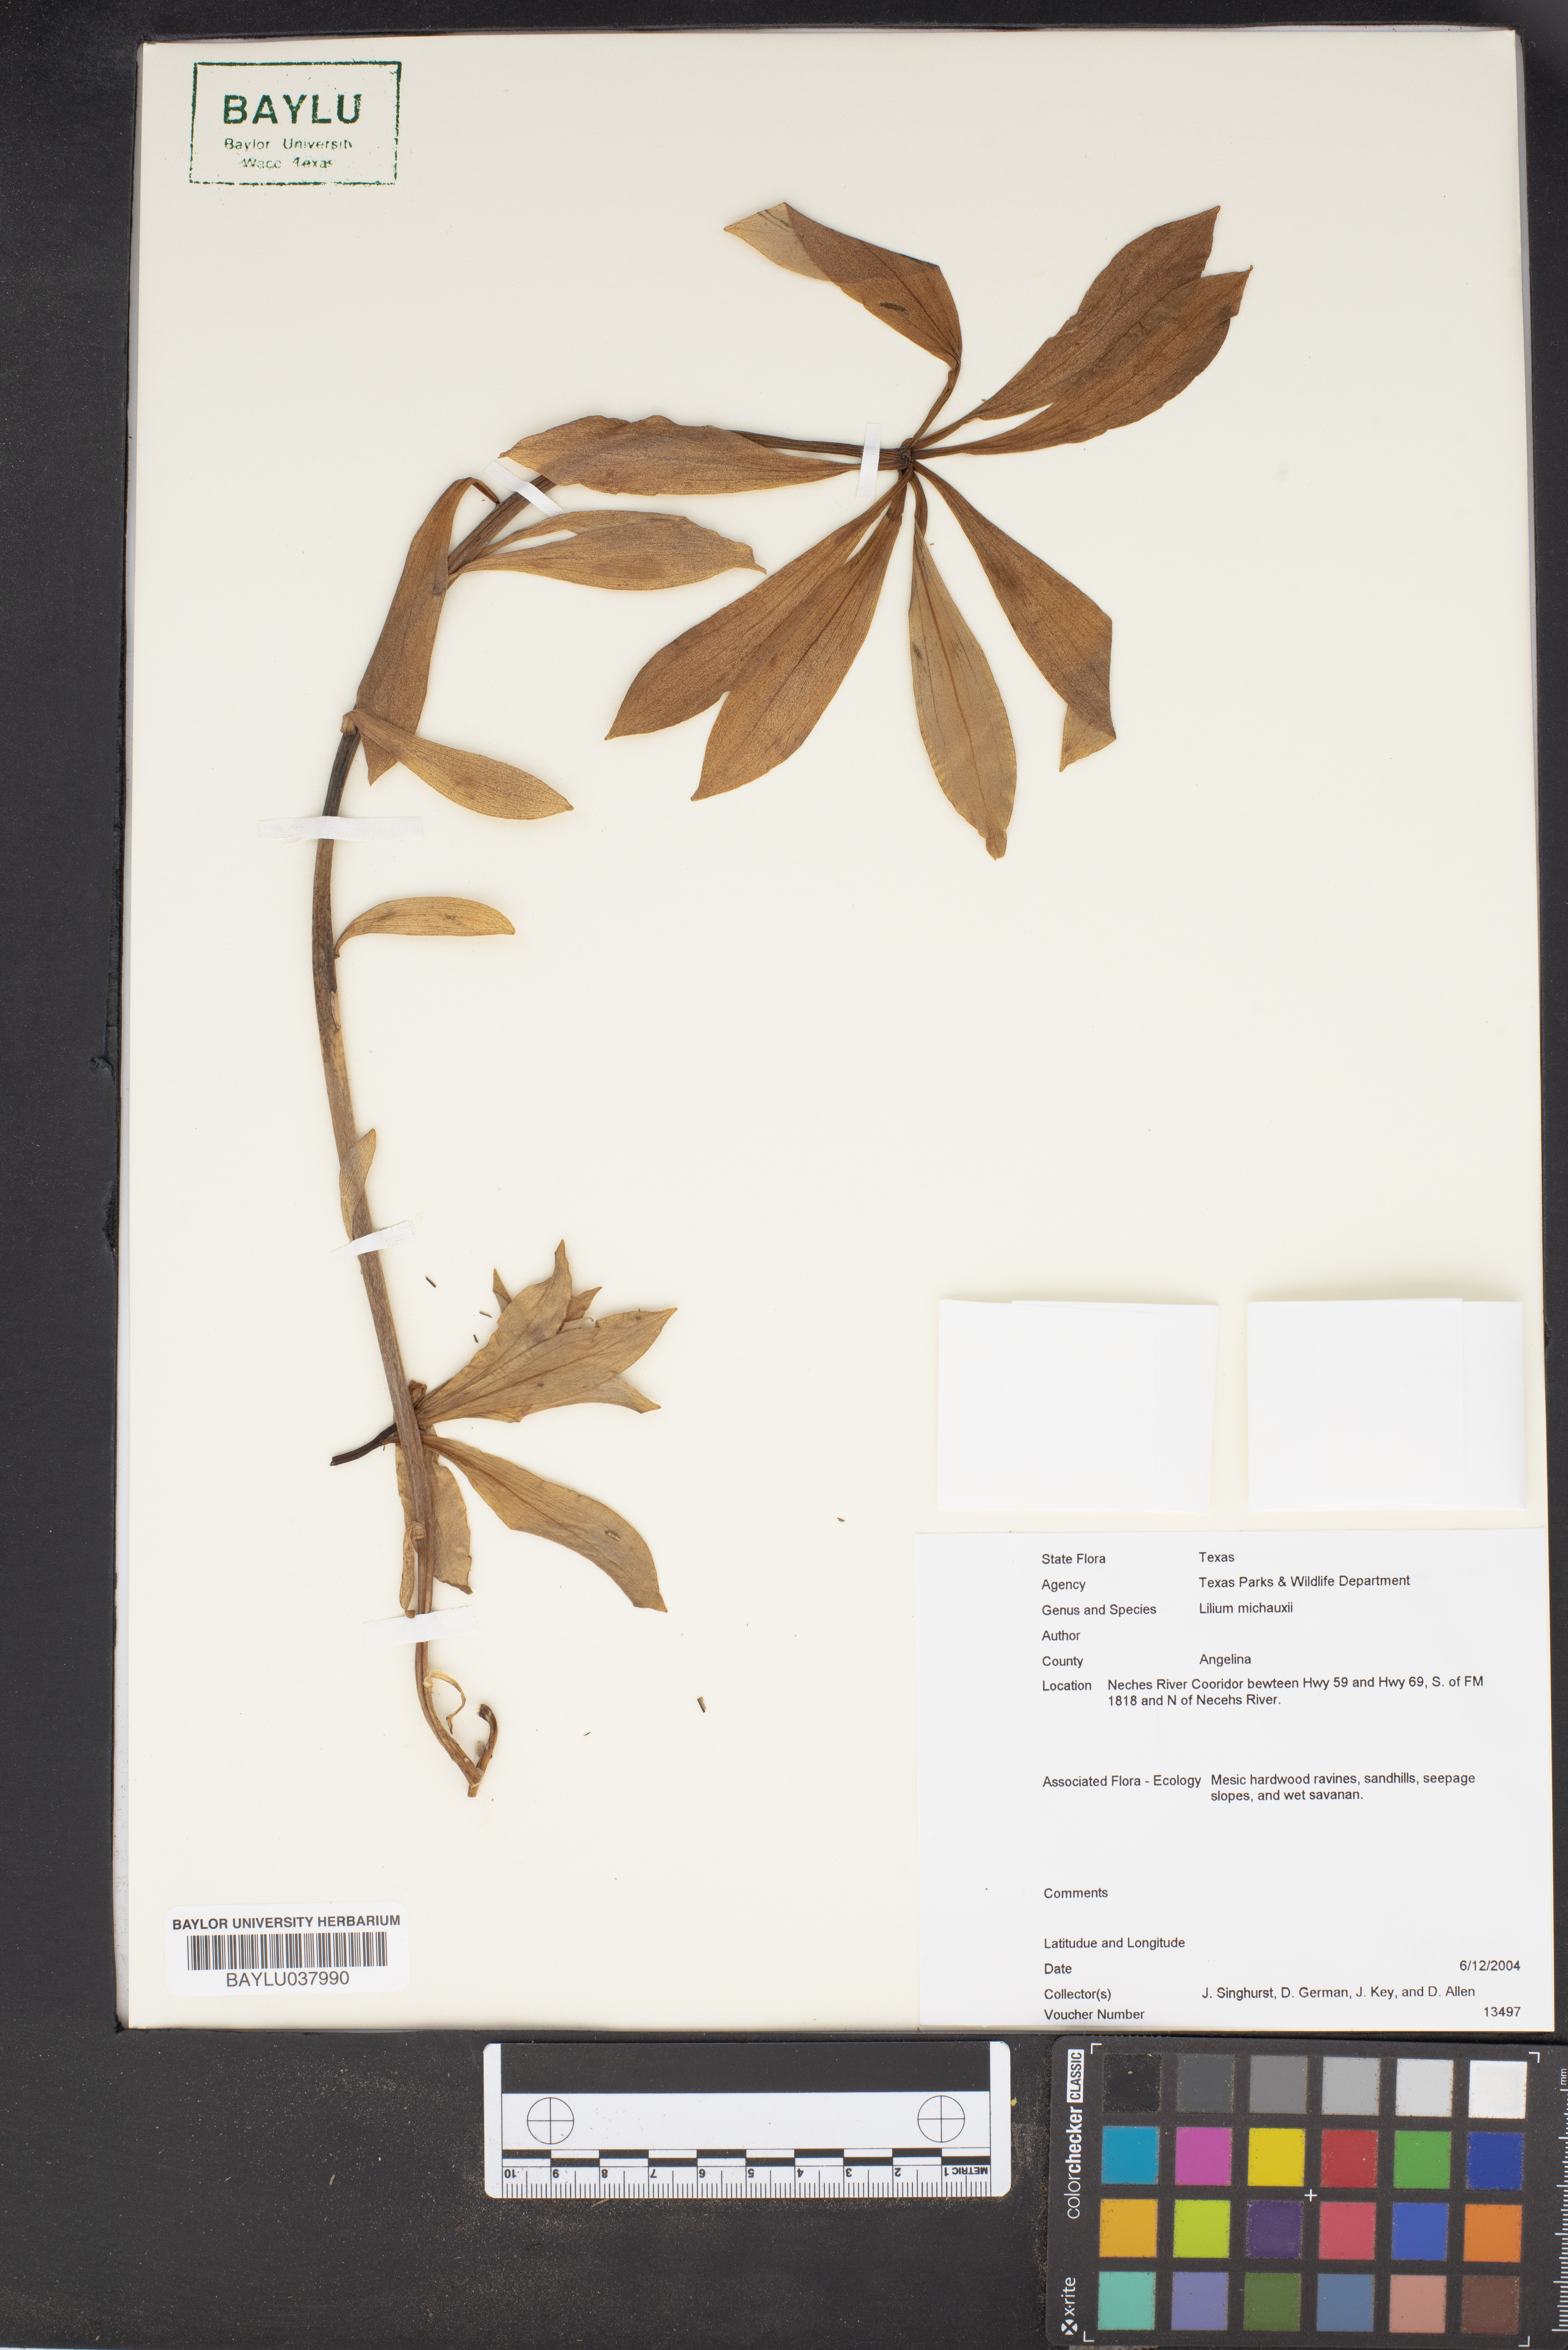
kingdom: Plantae
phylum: Tracheophyta
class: Liliopsida
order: Liliales
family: Liliaceae
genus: Lilium
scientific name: Lilium michauxii
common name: Carolina lily
